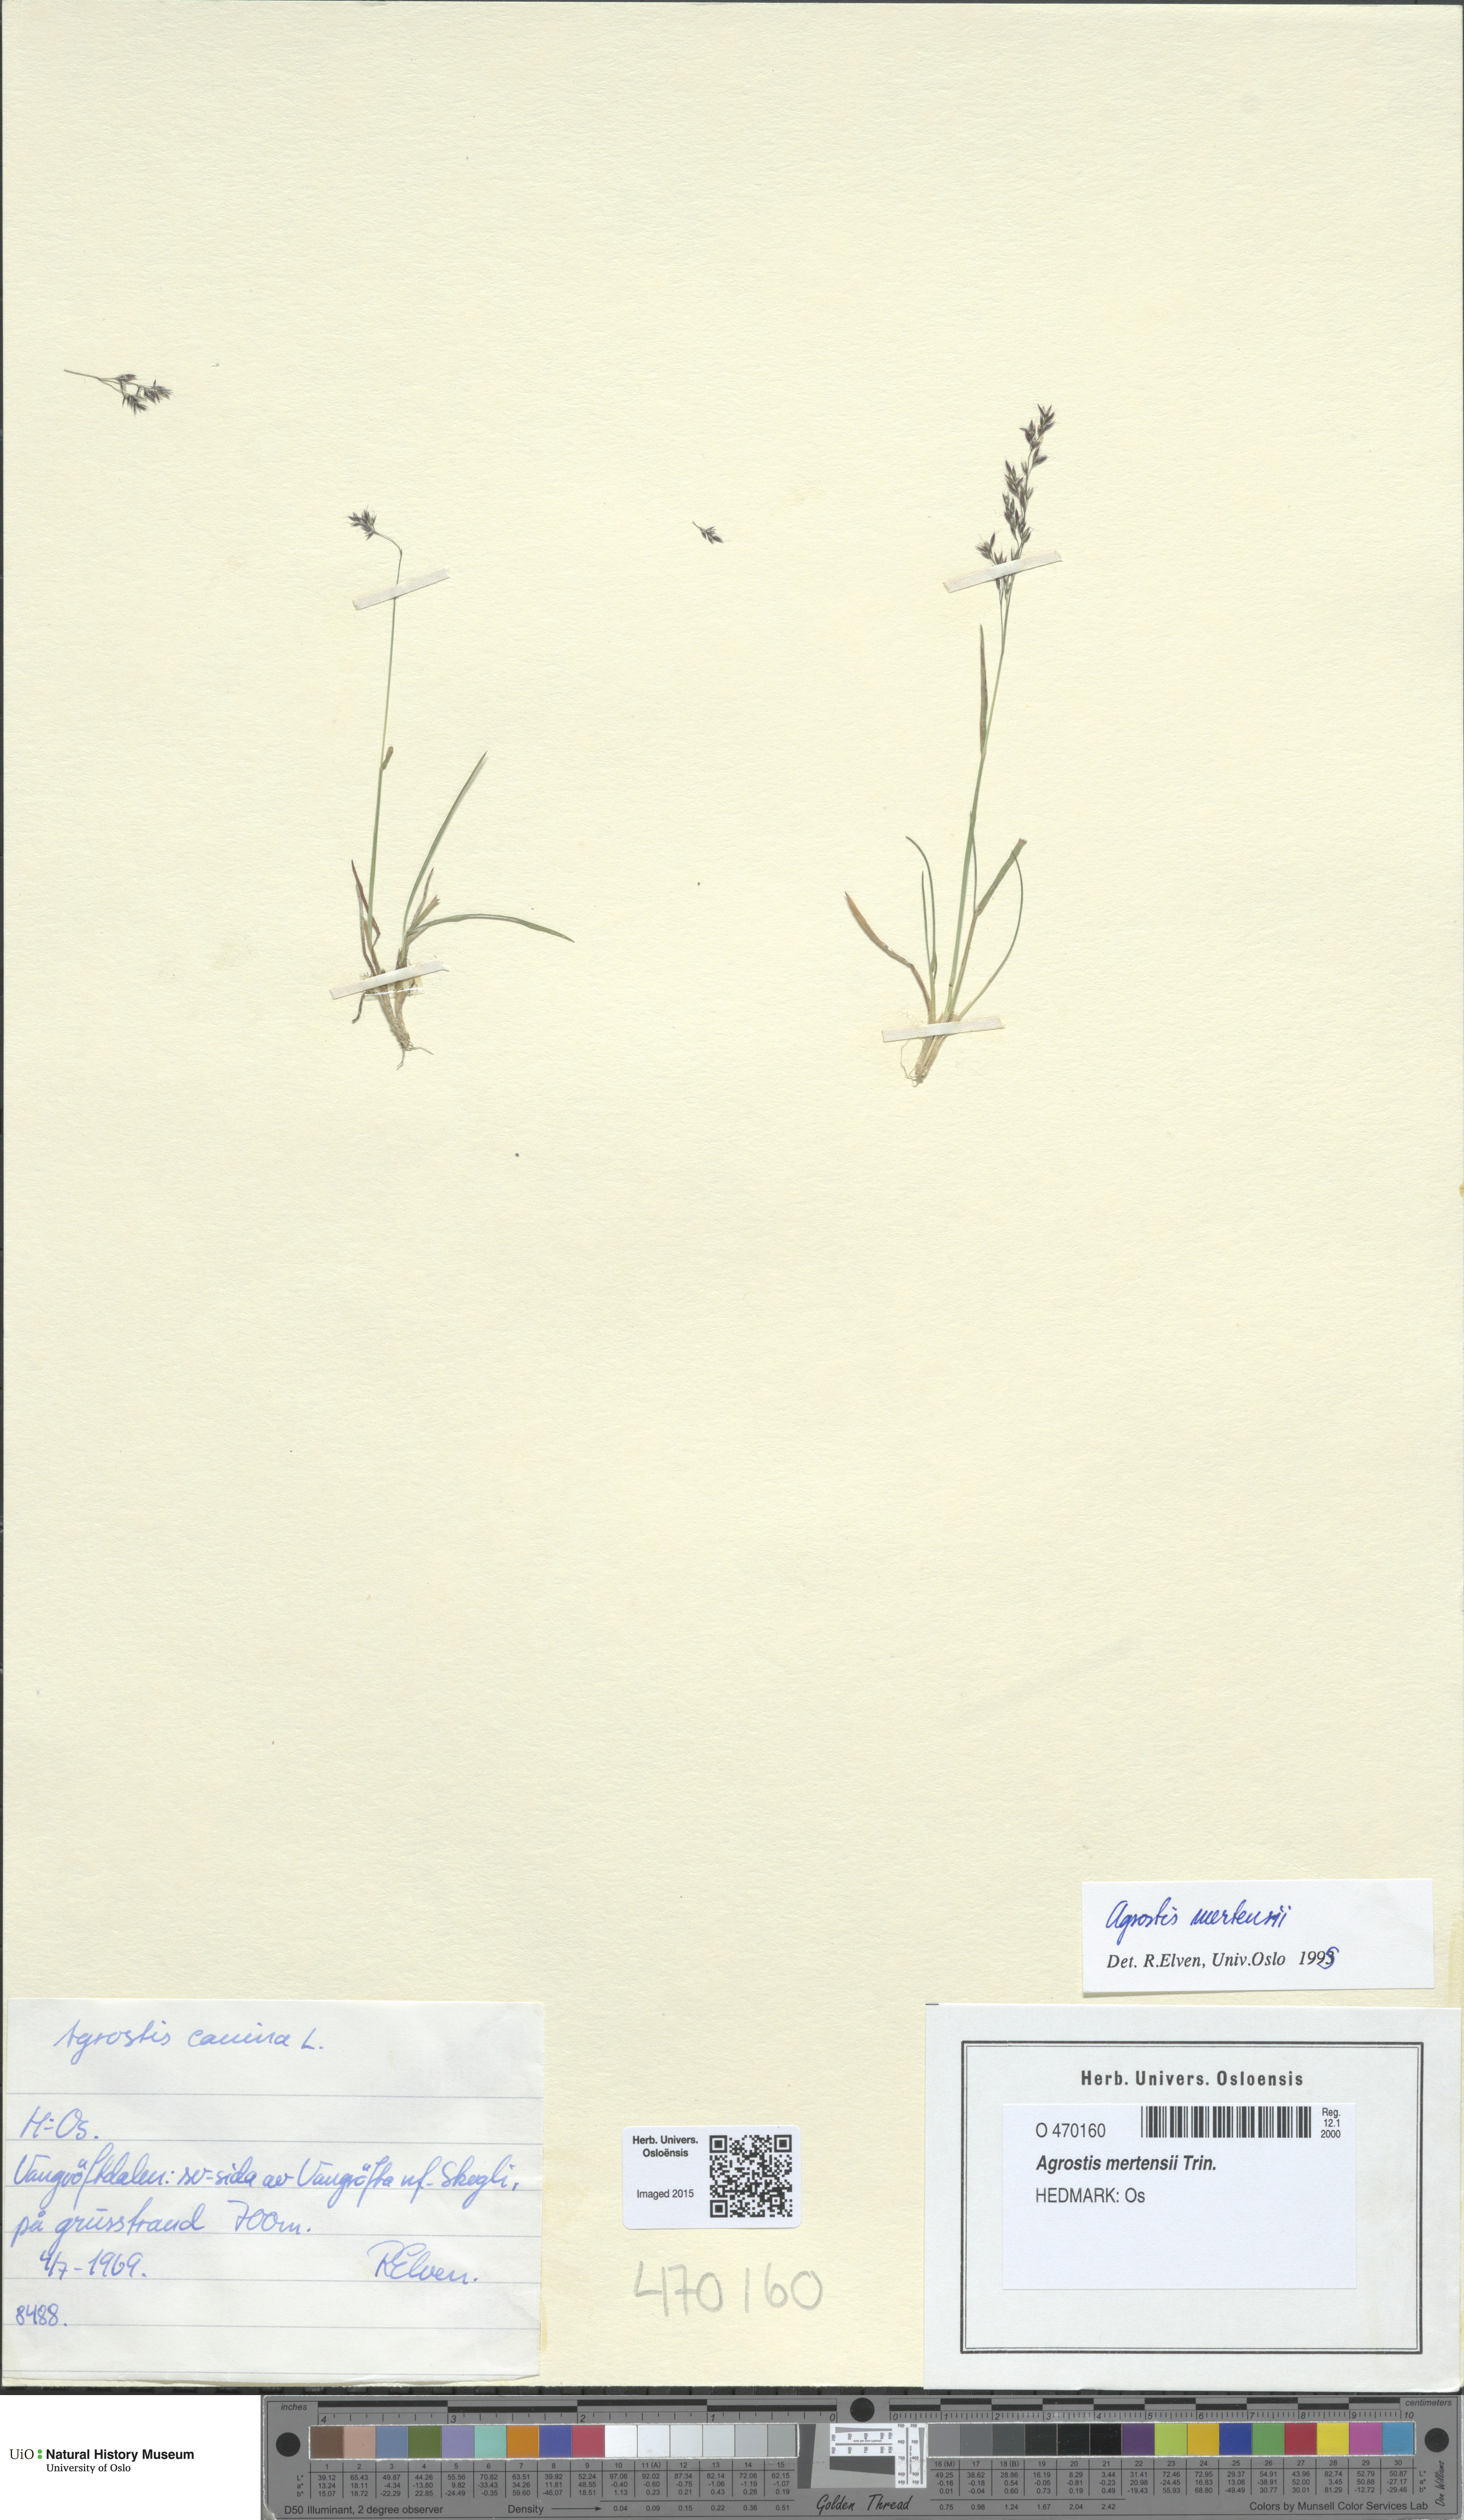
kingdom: Plantae
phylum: Tracheophyta
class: Liliopsida
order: Poales
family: Poaceae
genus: Agrostis
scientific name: Agrostis mertensii
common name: Northern bent
